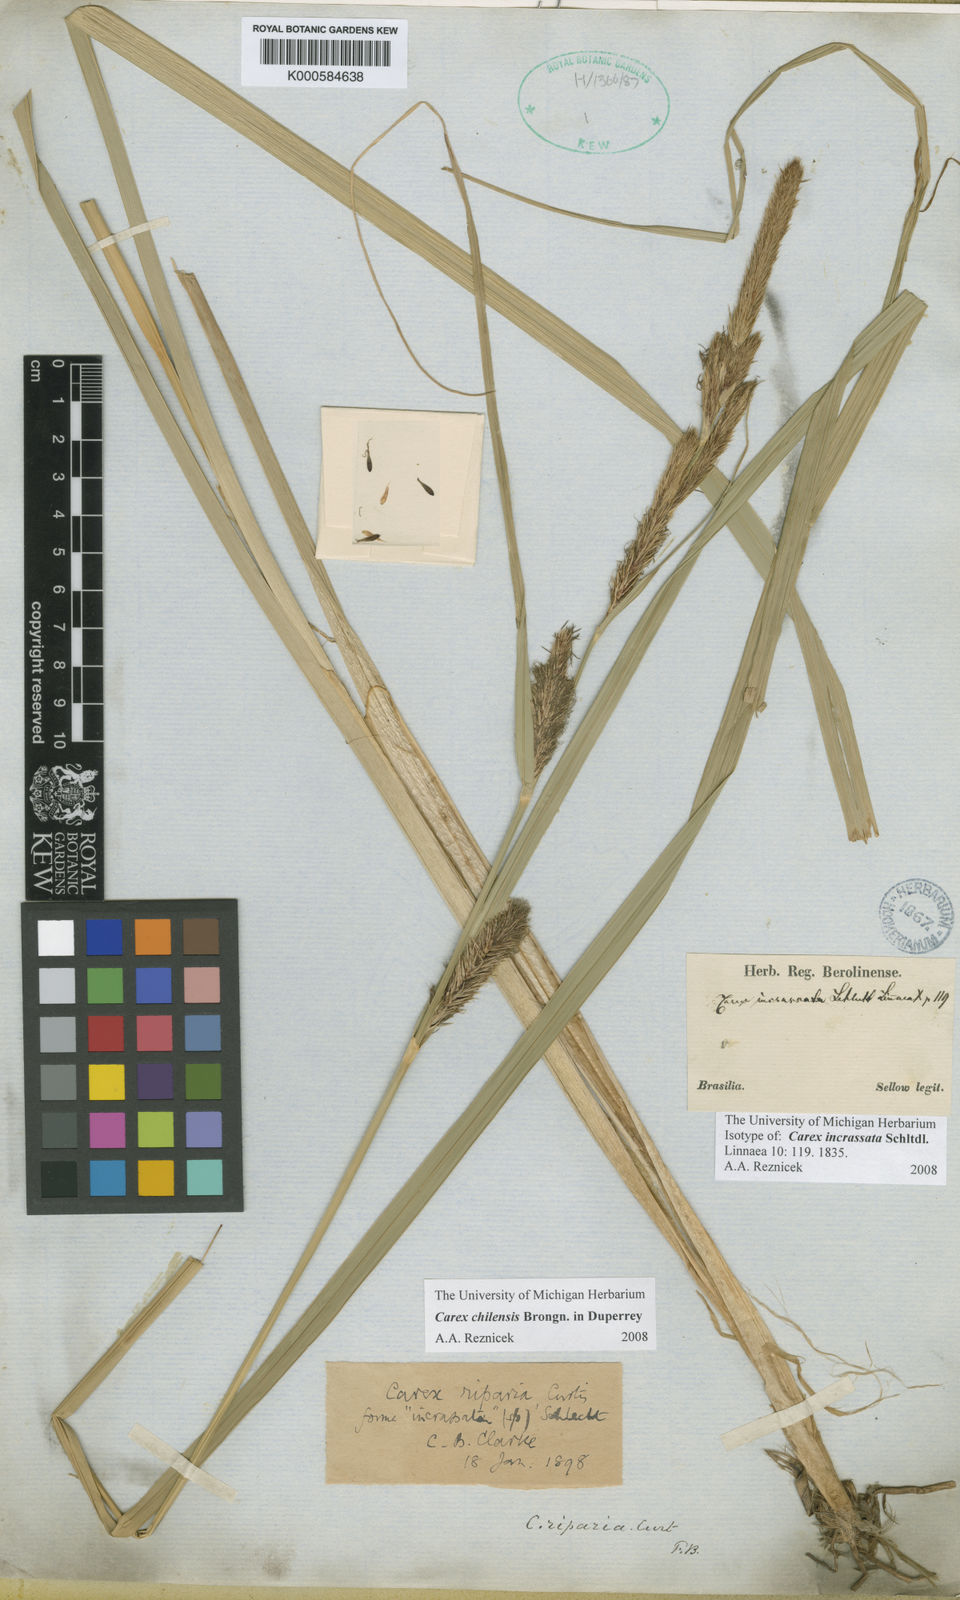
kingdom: Plantae
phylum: Tracheophyta
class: Liliopsida
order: Poales
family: Cyperaceae
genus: Carex
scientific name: Carex chilensis
